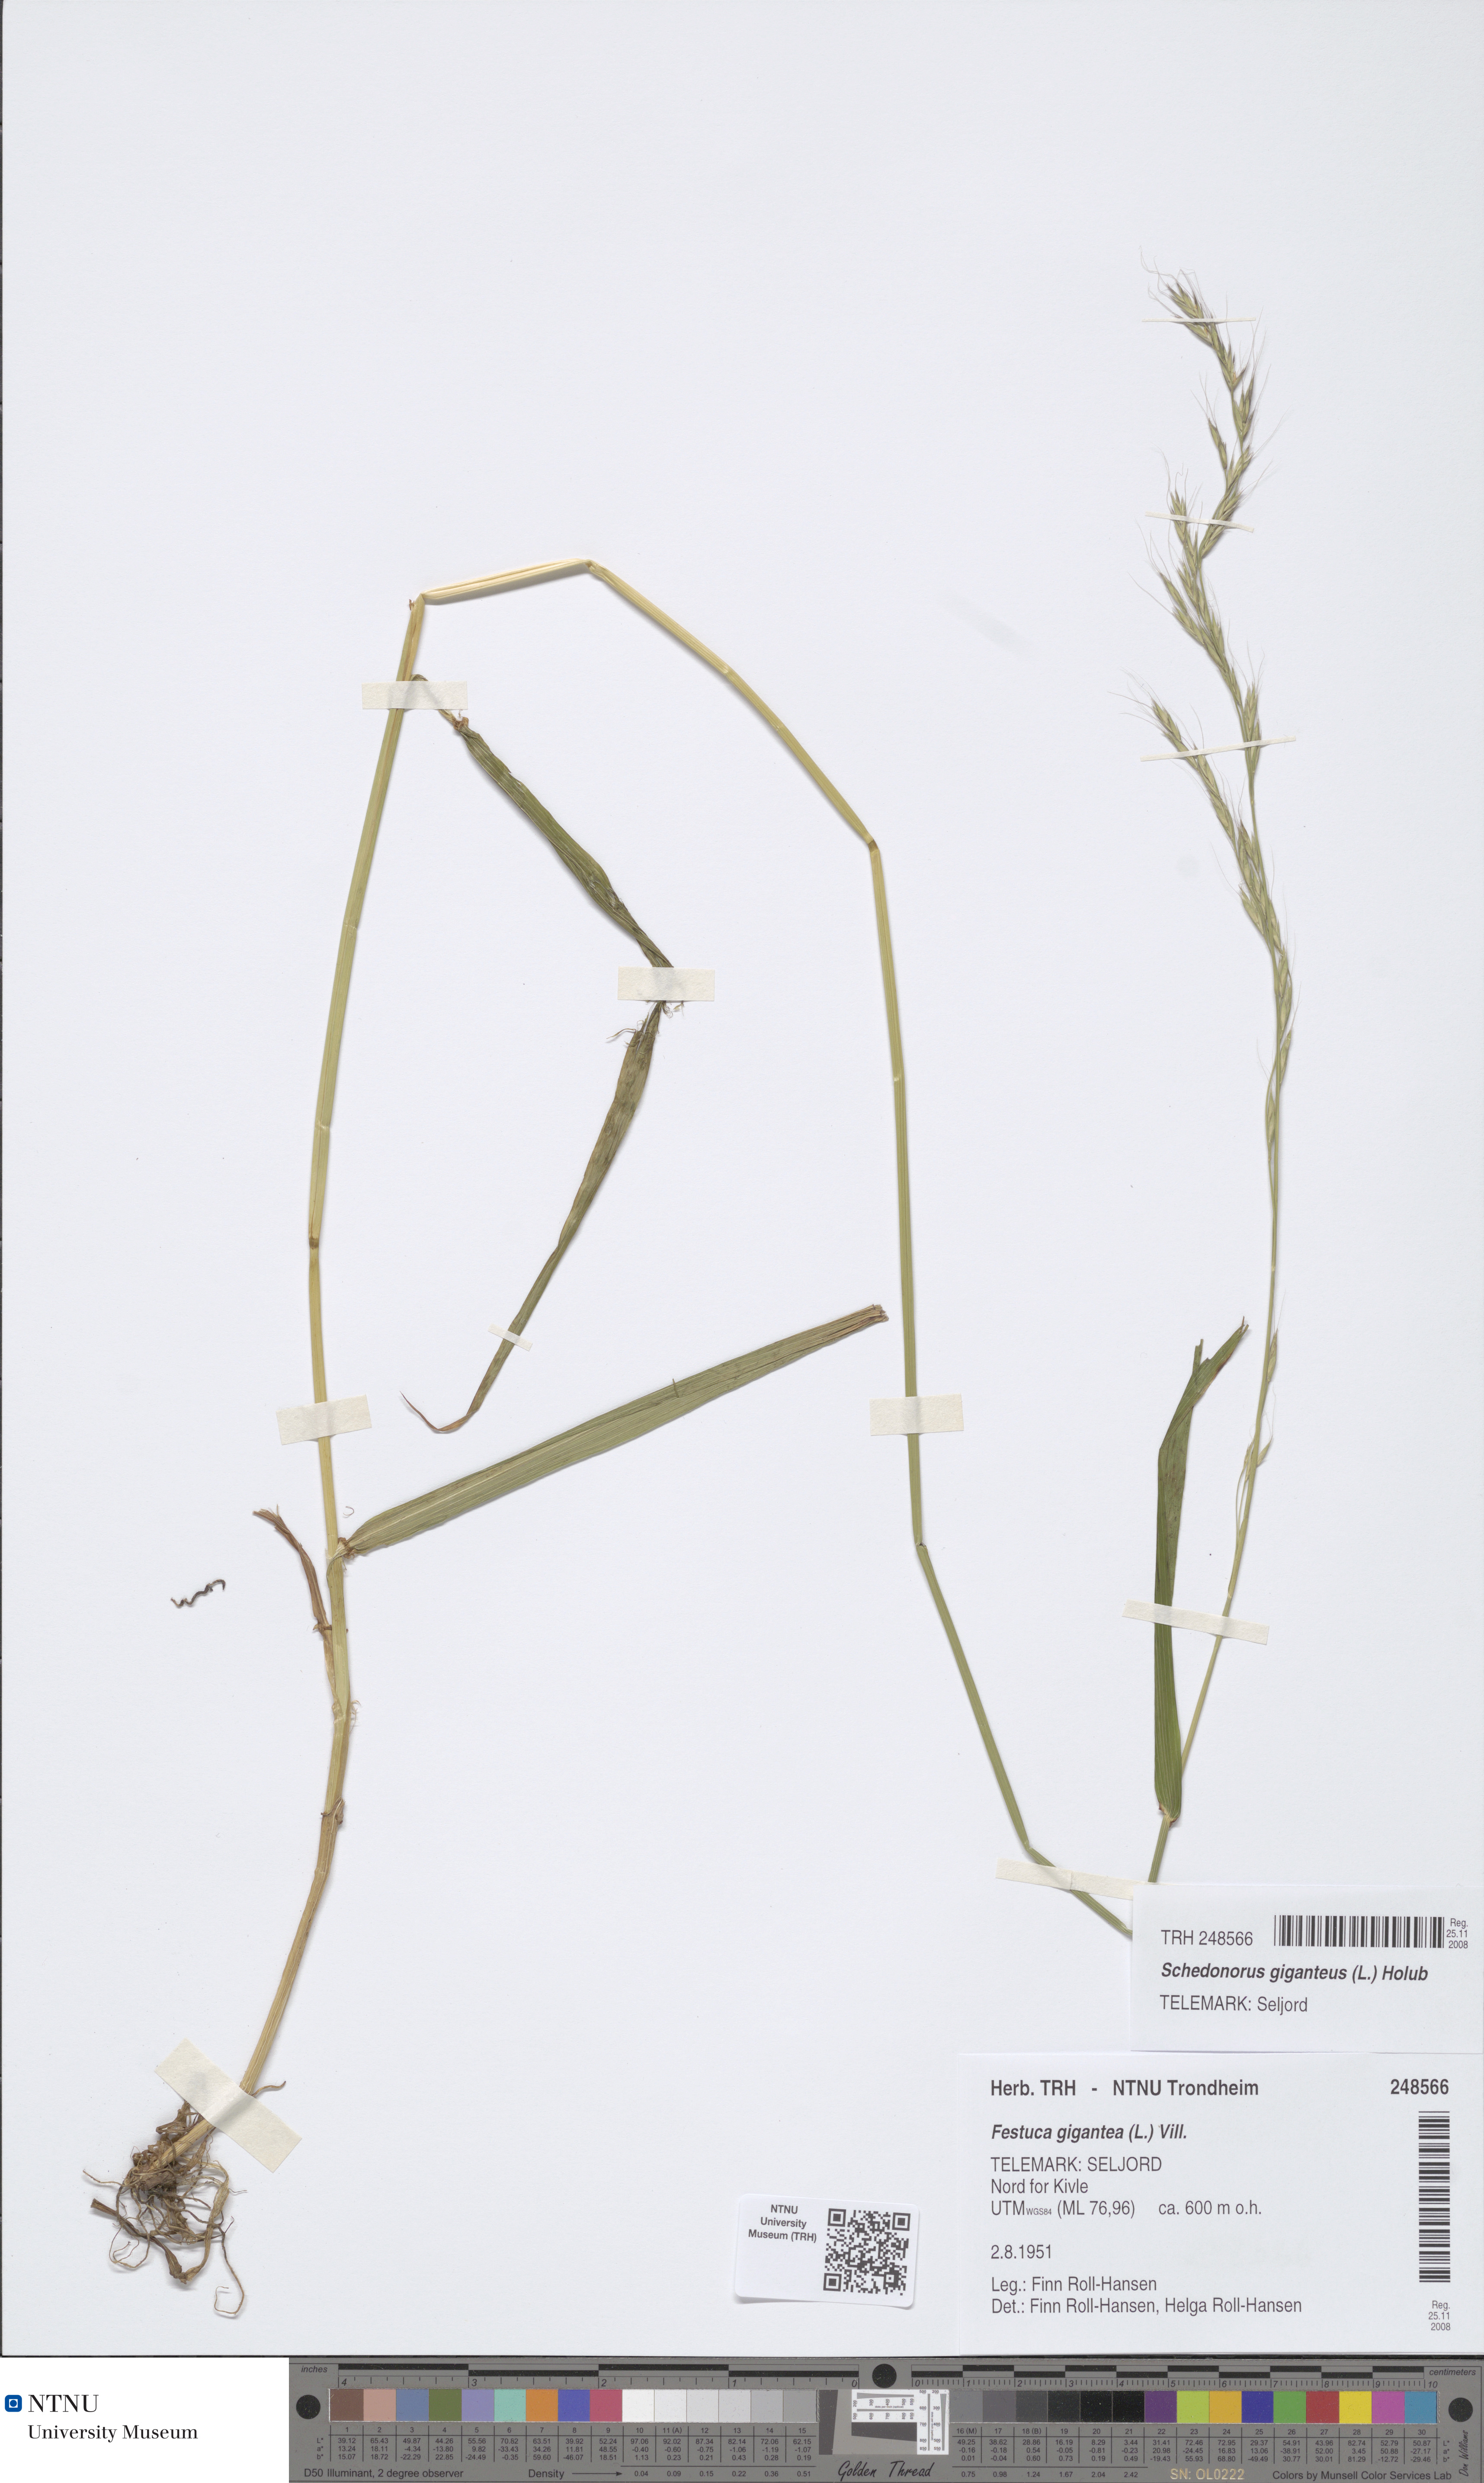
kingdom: Plantae
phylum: Tracheophyta
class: Liliopsida
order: Poales
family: Poaceae
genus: Lolium
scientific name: Lolium giganteum
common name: Giant fescue
